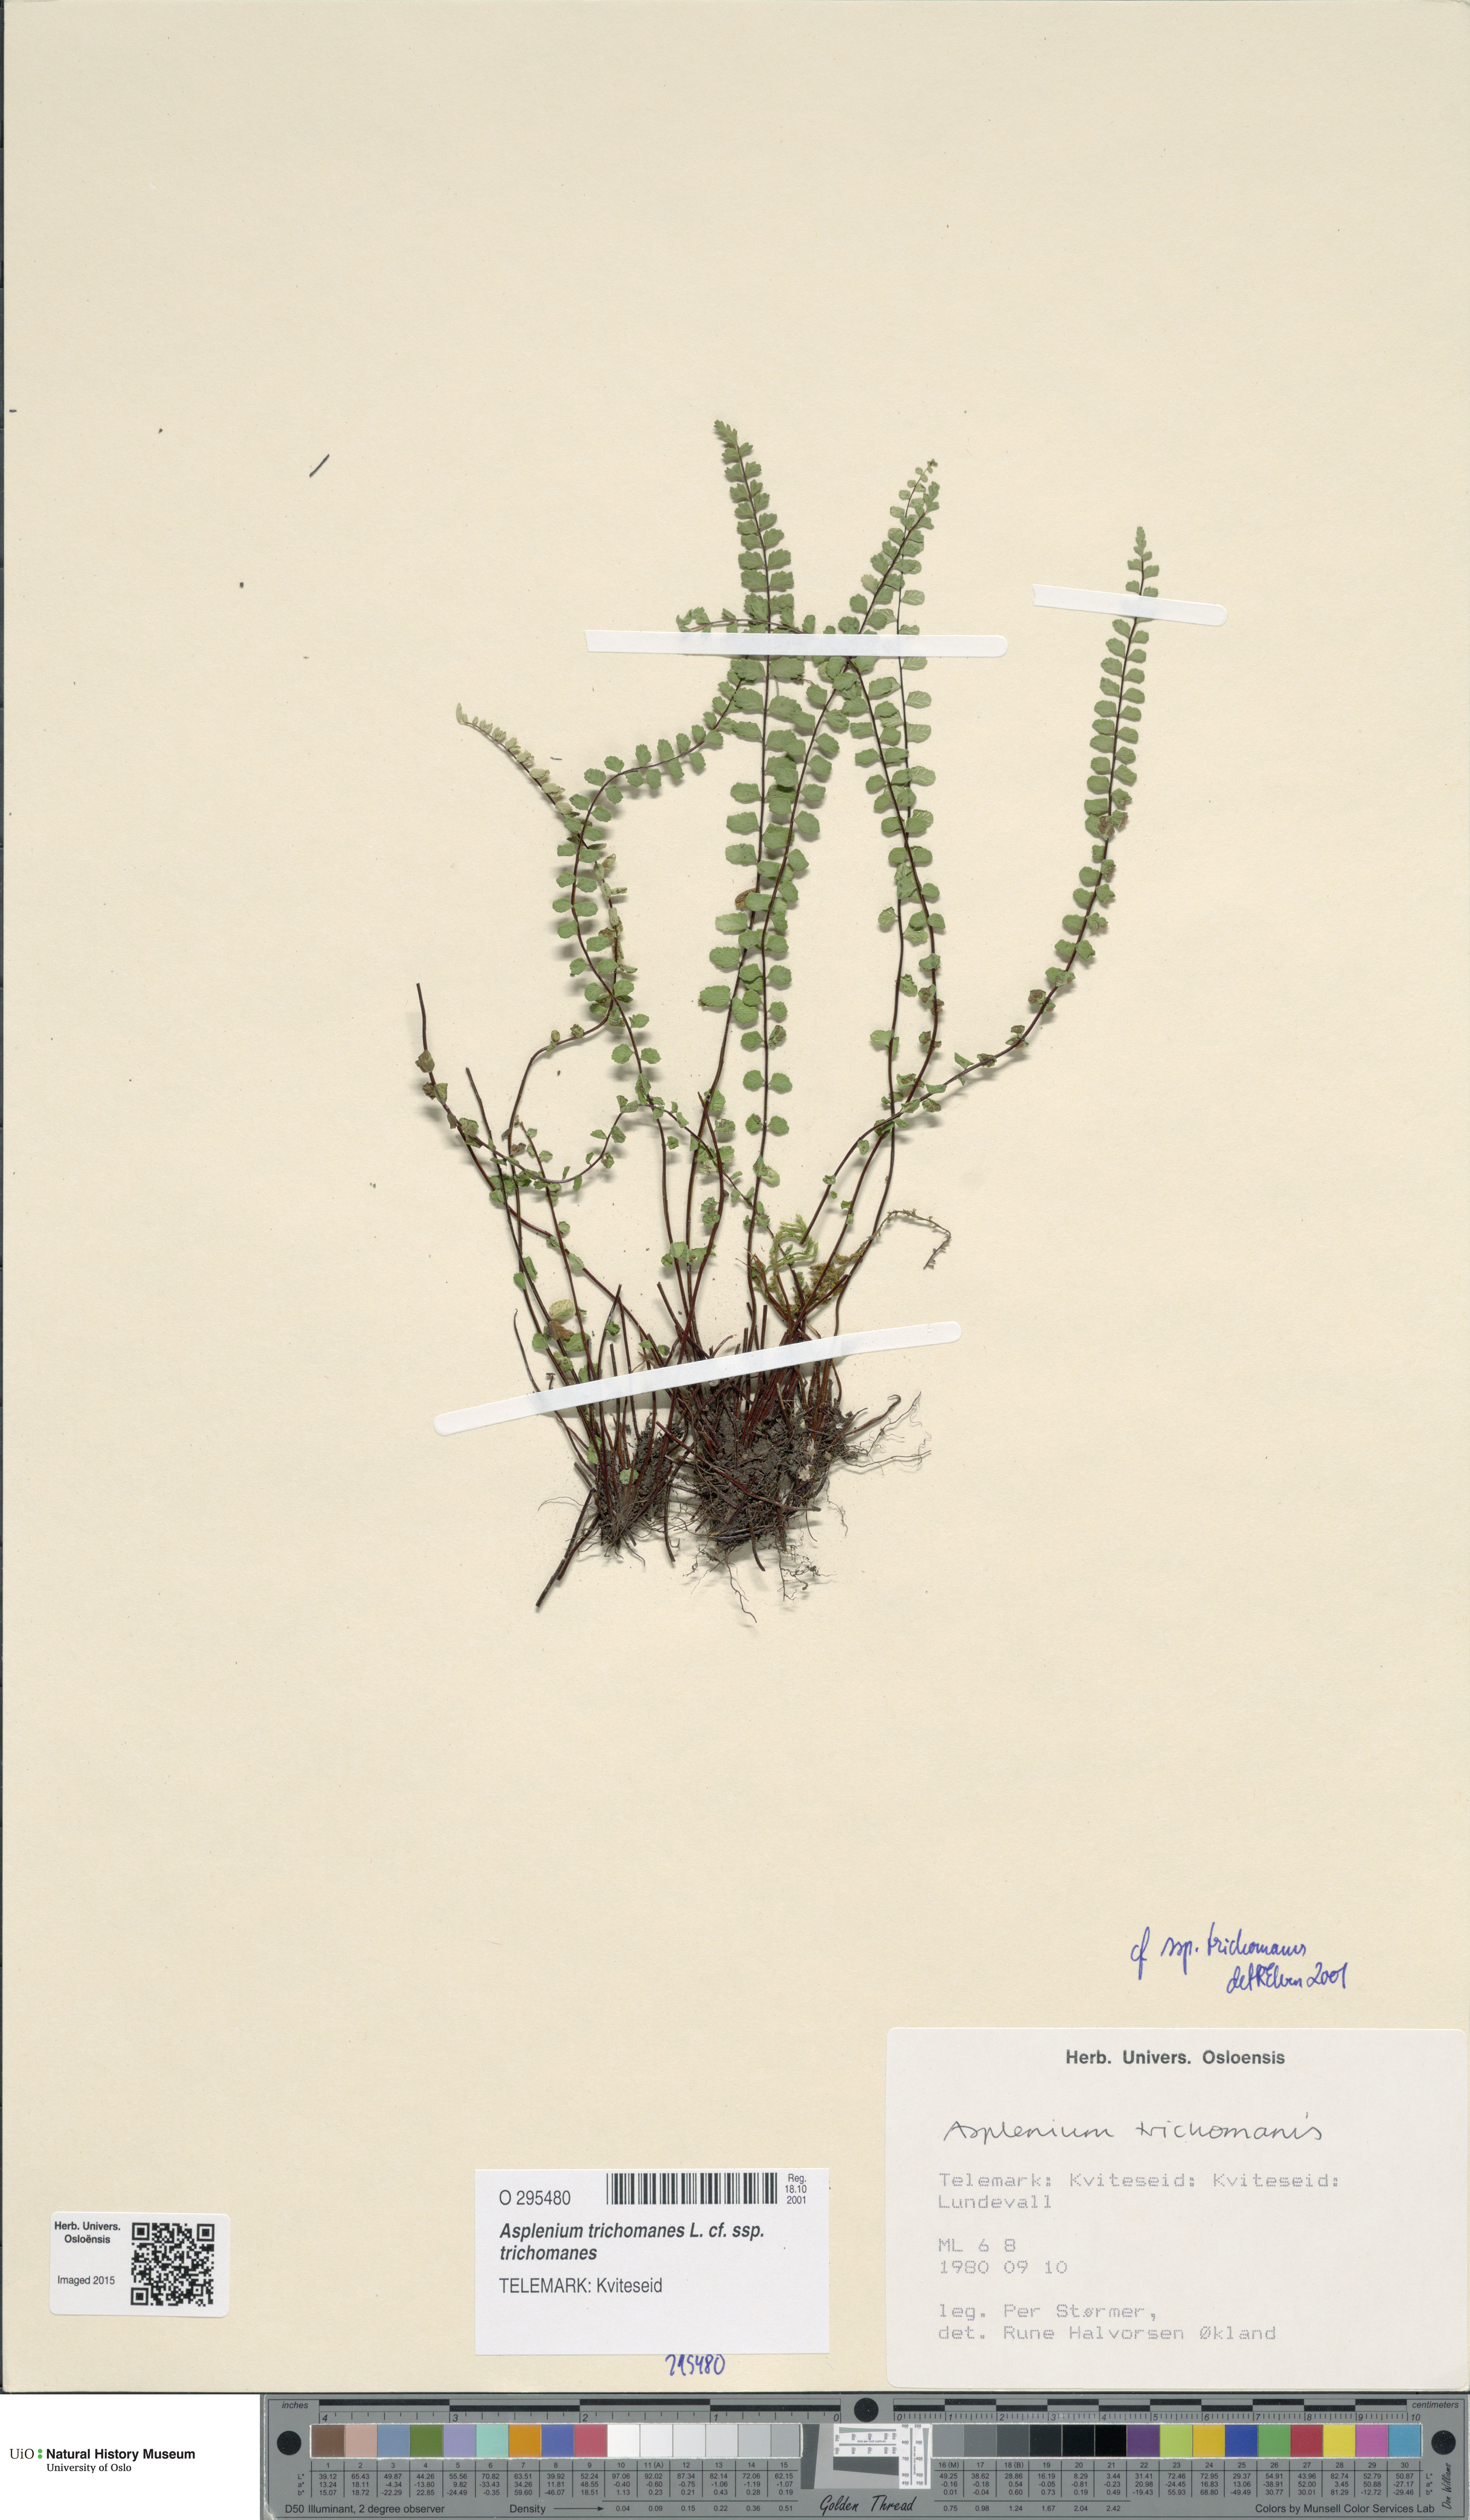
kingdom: Plantae
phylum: Tracheophyta
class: Polypodiopsida
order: Polypodiales
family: Aspleniaceae
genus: Asplenium
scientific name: Asplenium trichomanes
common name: Maidenhair spleenwort
